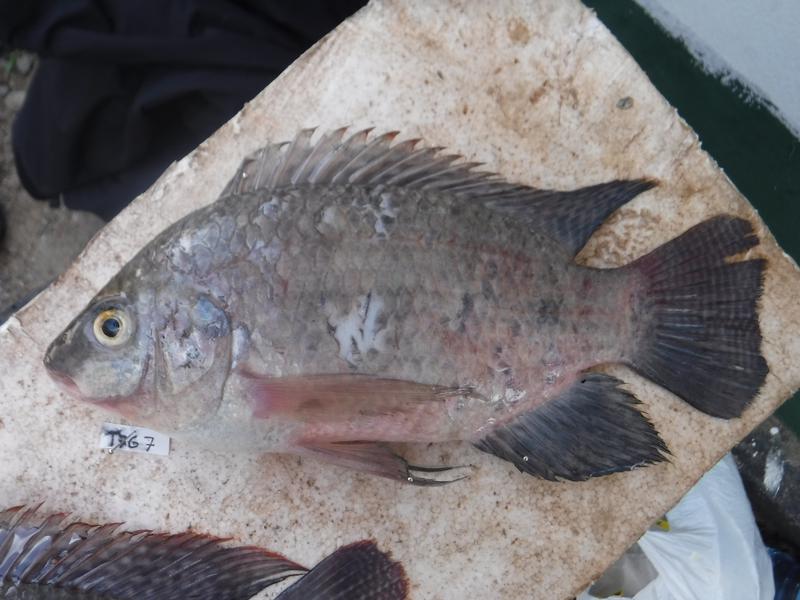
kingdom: Animalia
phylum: Chordata
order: Perciformes
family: Cichlidae
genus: Oreochromis
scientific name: Oreochromis urolepis
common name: Wami tilapia
